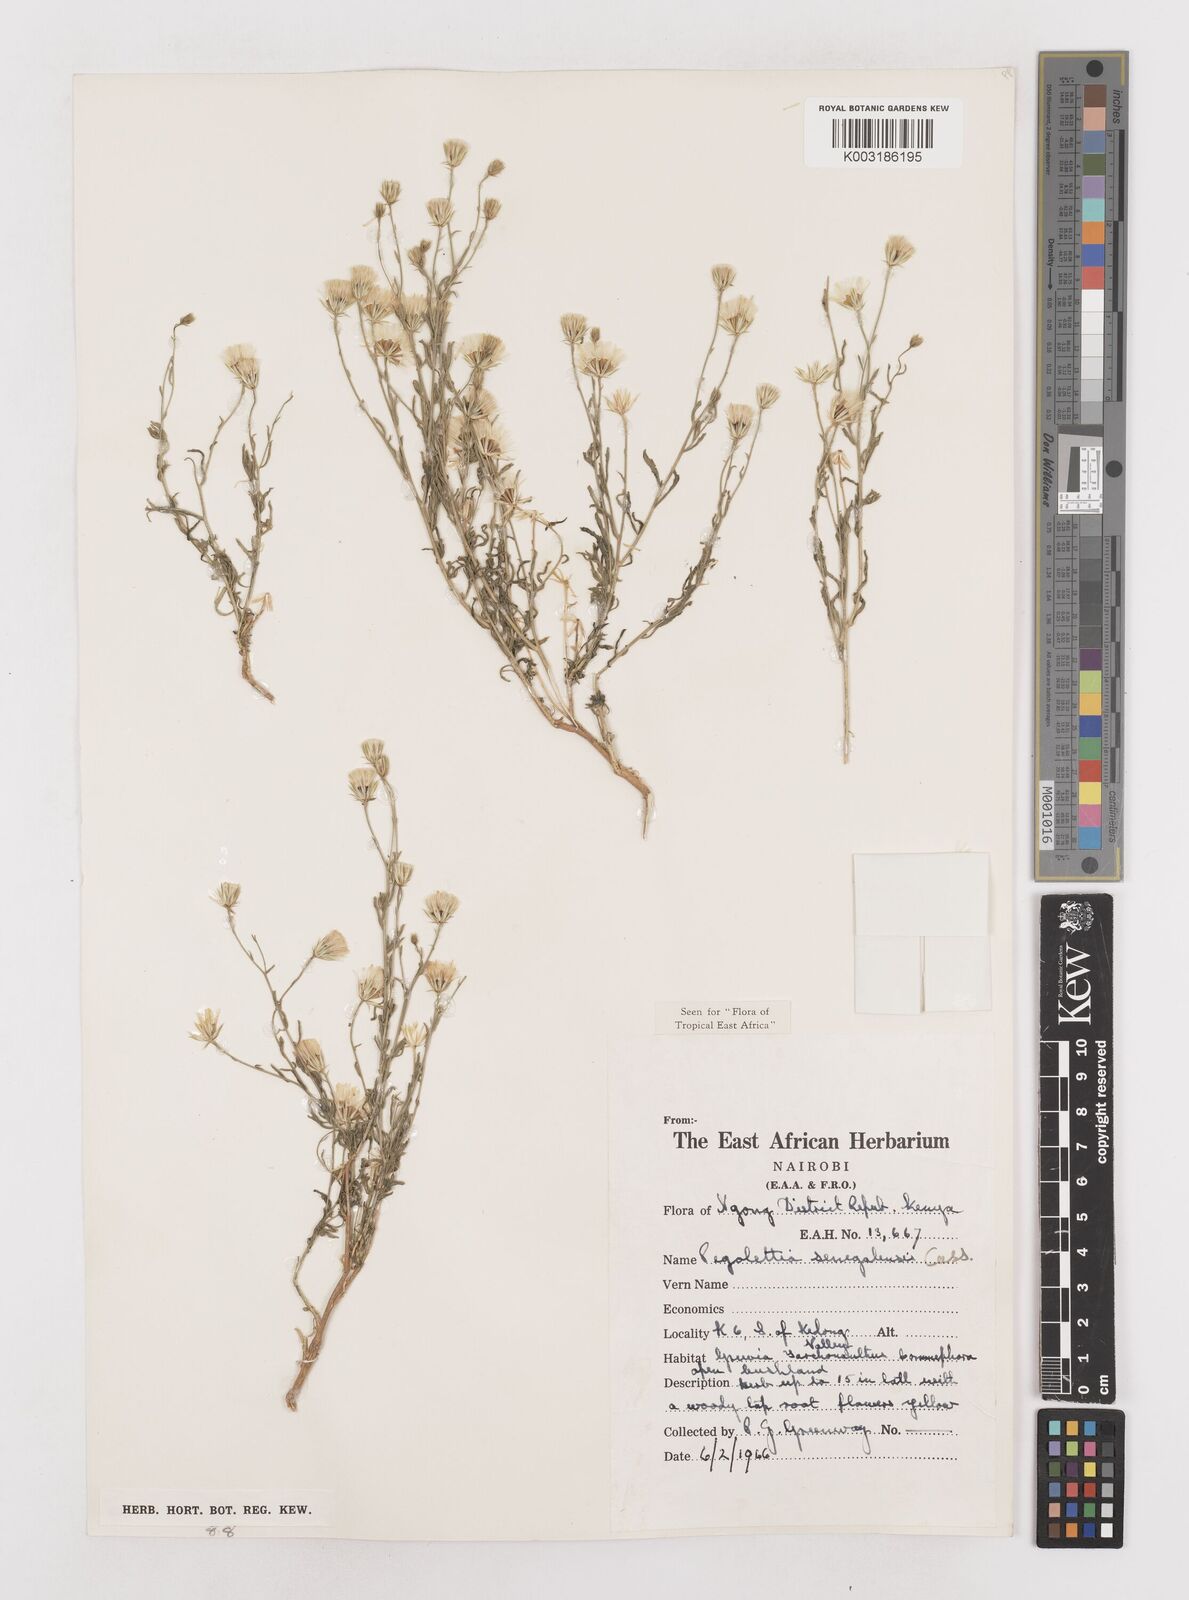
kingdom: Plantae
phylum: Tracheophyta
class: Magnoliopsida
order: Asterales
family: Asteraceae
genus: Pegolettia
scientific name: Pegolettia senegalensis
